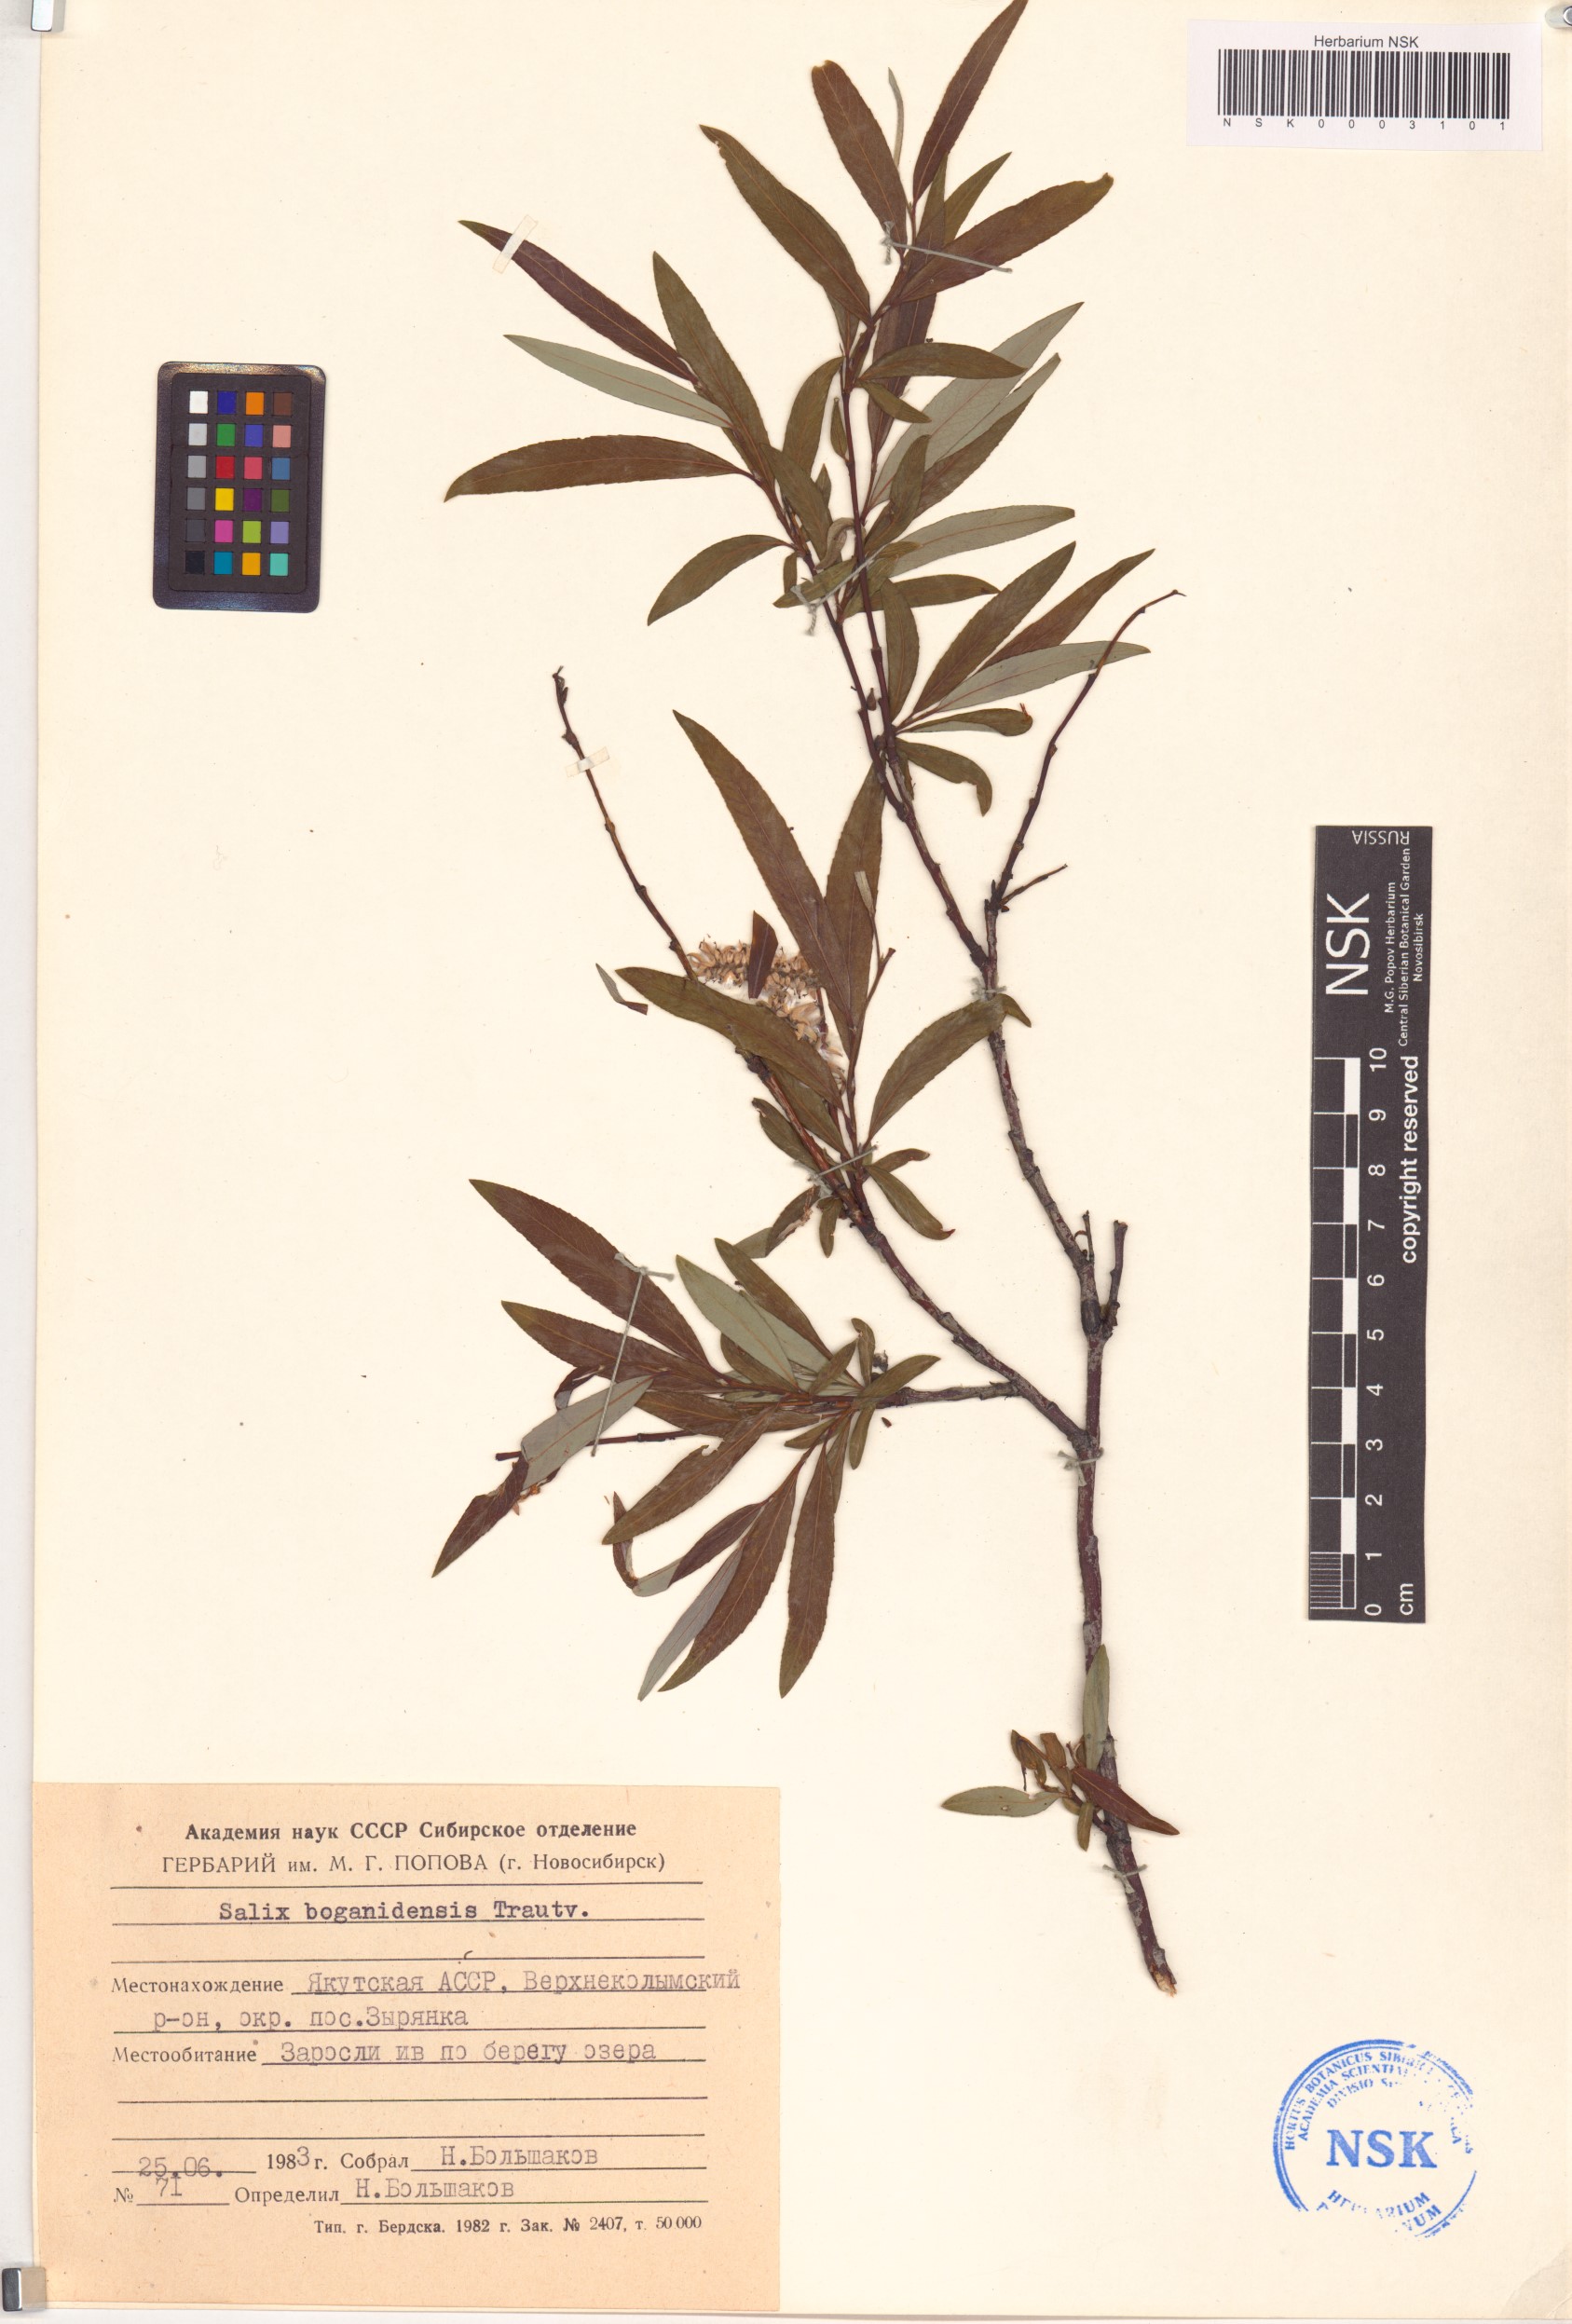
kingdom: Plantae
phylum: Tracheophyta
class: Magnoliopsida
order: Malpighiales
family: Salicaceae
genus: Salix
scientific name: Salix boganidensis
